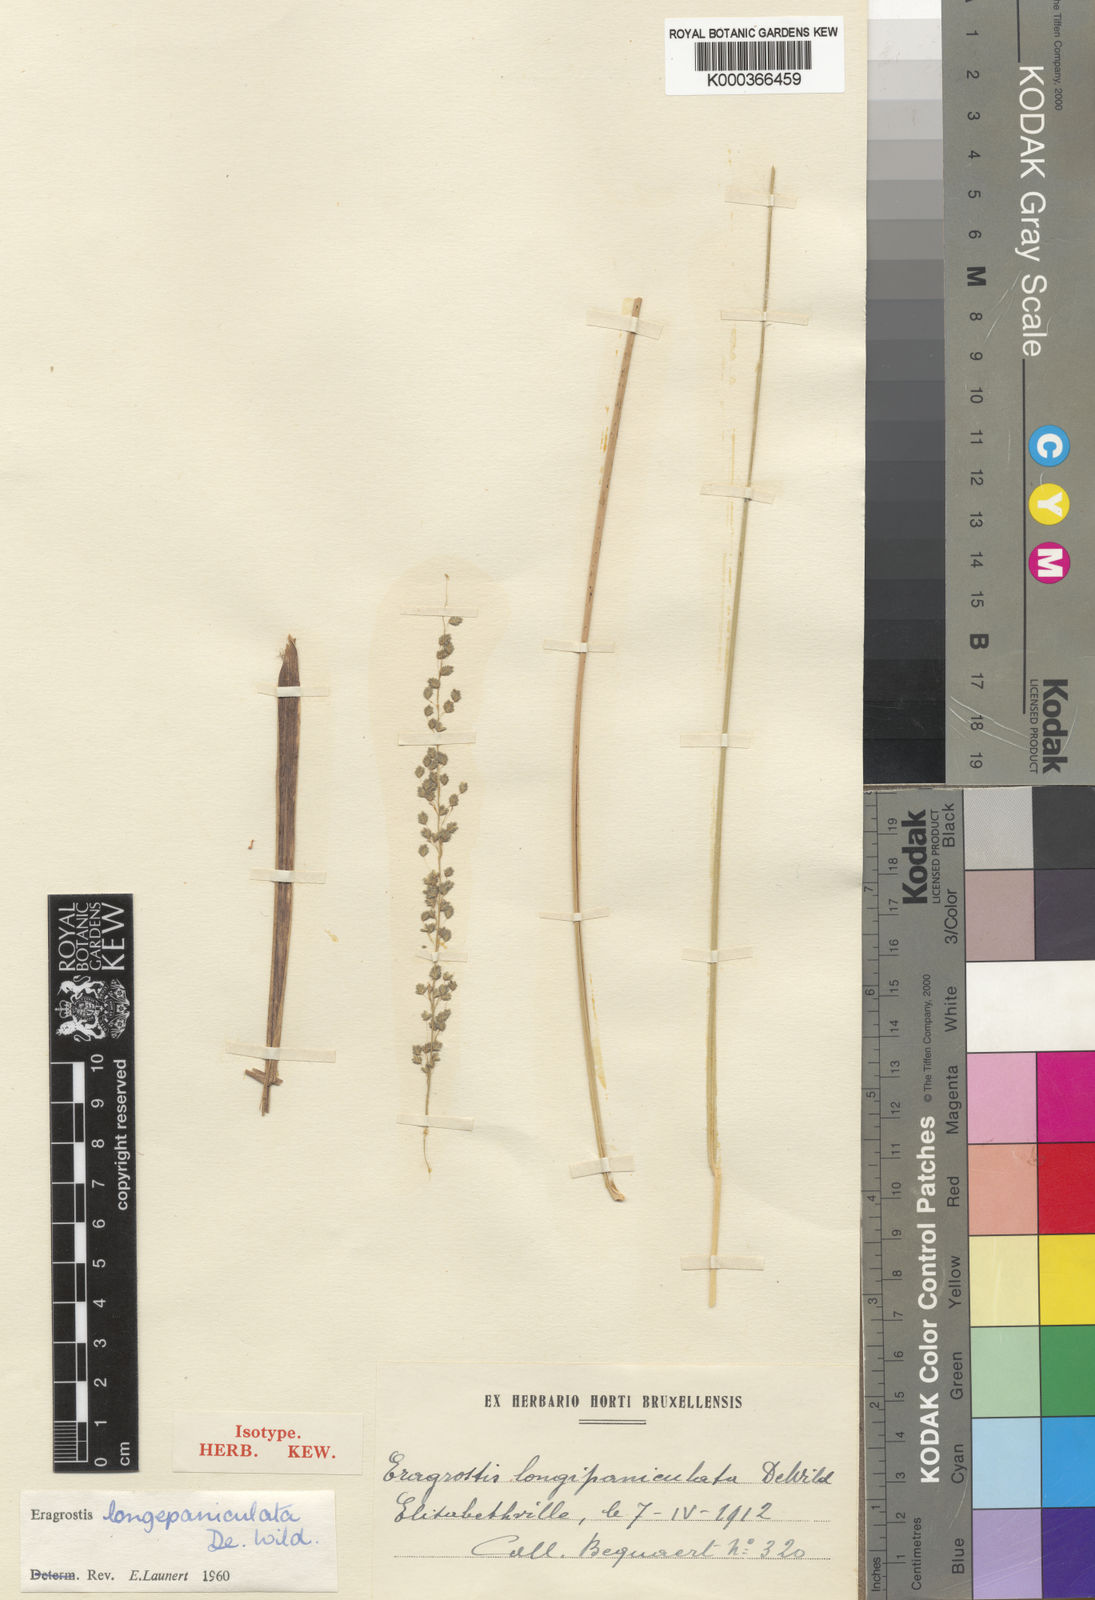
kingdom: Plantae
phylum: Tracheophyta
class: Liliopsida
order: Poales
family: Poaceae
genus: Eragrostis
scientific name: Eragrostis
